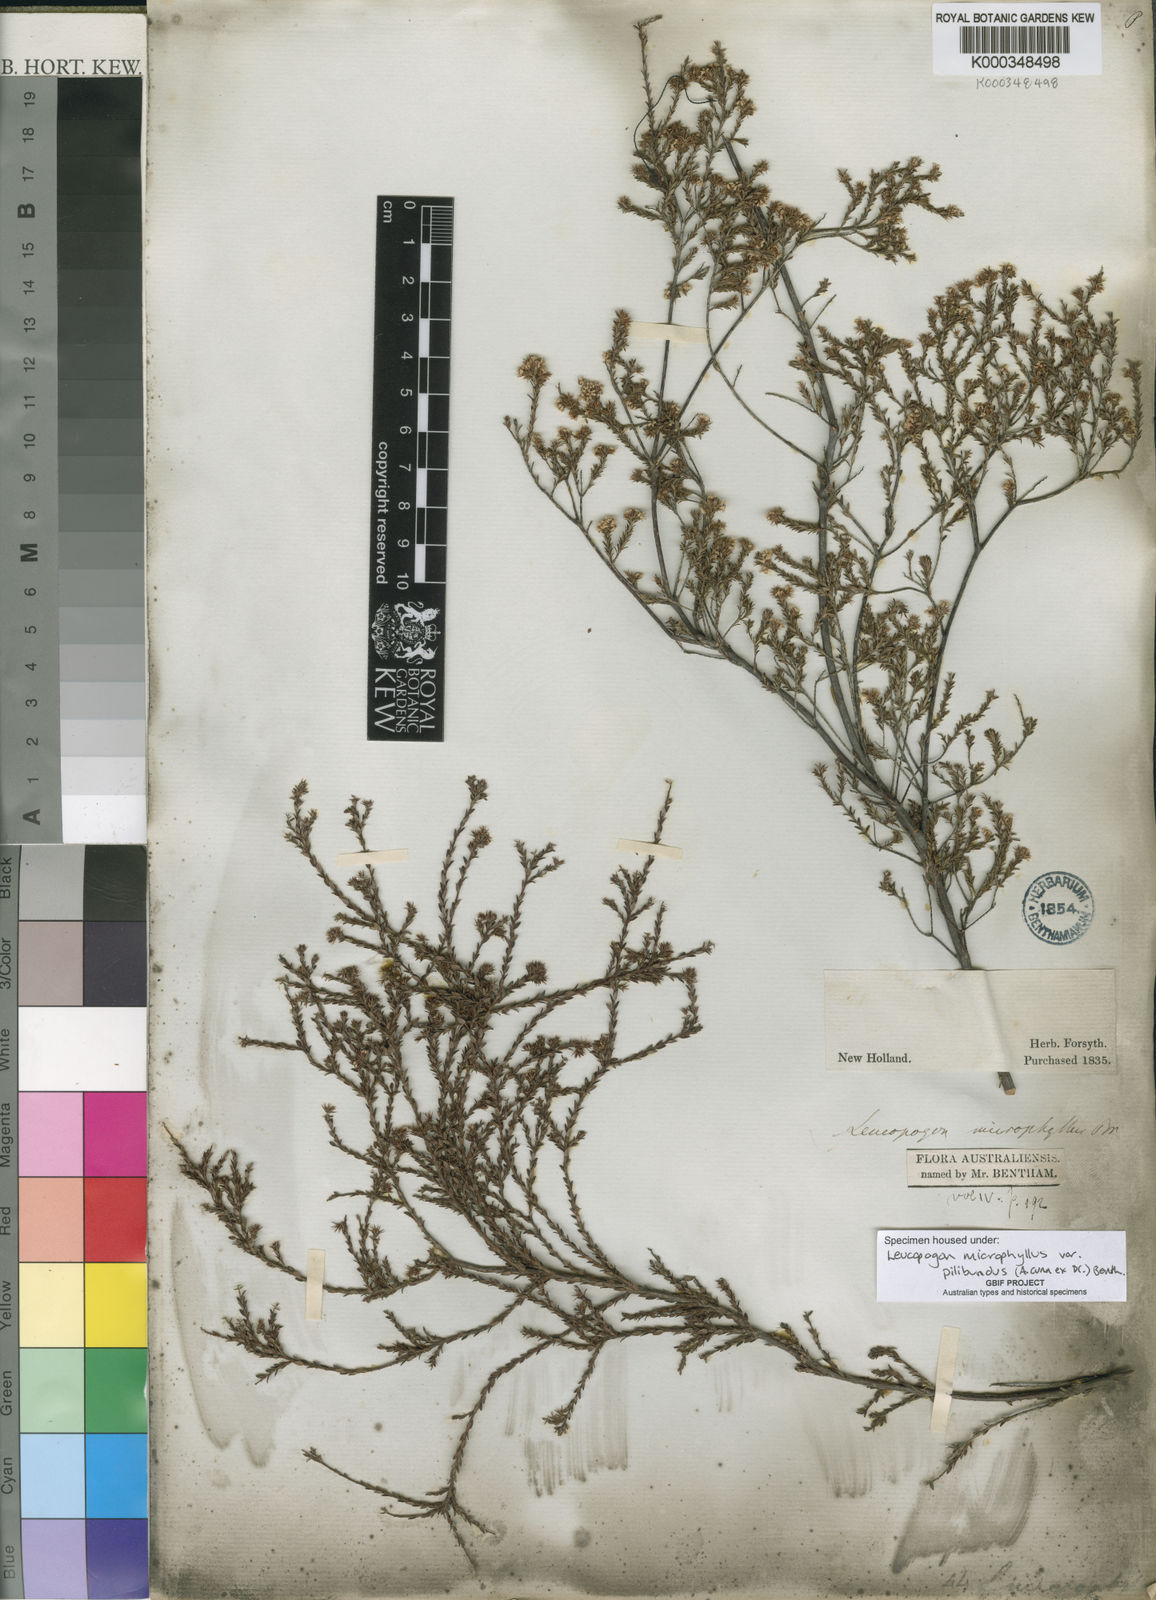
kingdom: Plantae
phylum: Tracheophyta
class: Magnoliopsida
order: Ericales
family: Ericaceae
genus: Leucopogon
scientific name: Leucopogon microphyllus
